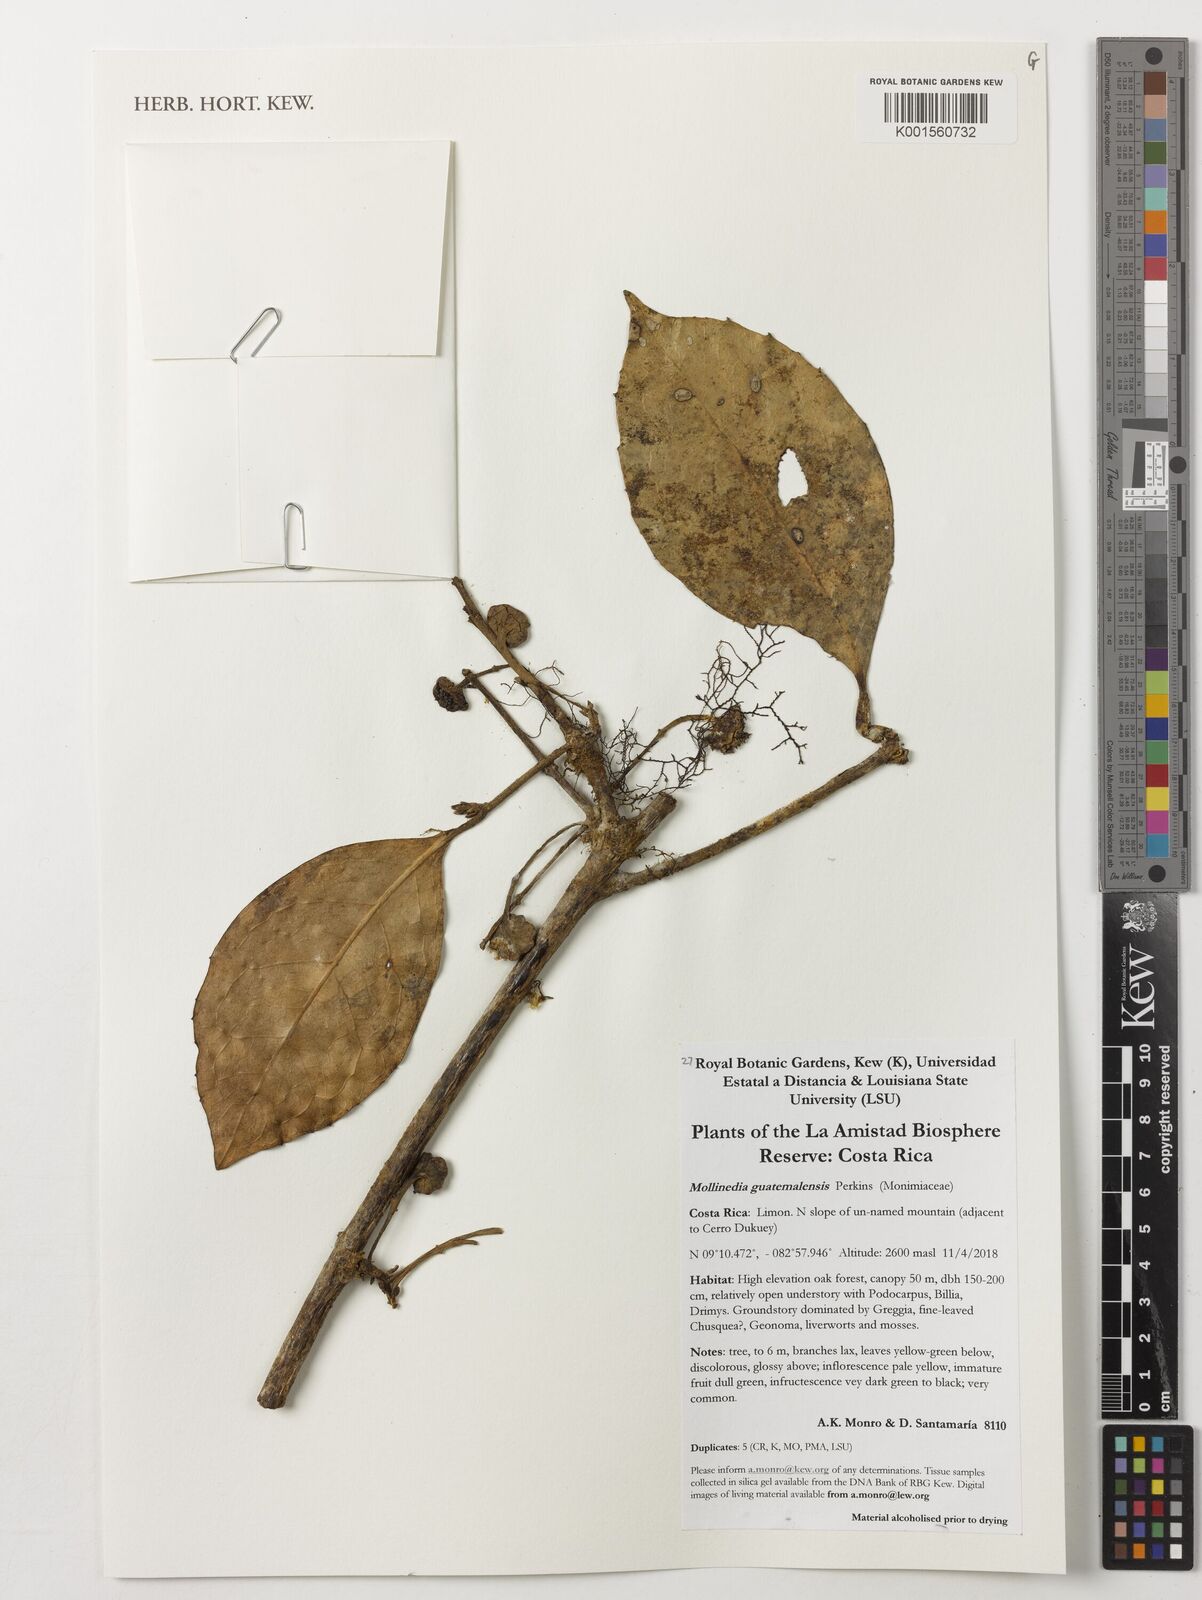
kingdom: Plantae
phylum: Tracheophyta
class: Magnoliopsida
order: Laurales
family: Monimiaceae
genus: Mollinedia
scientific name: Mollinedia viridiflora
